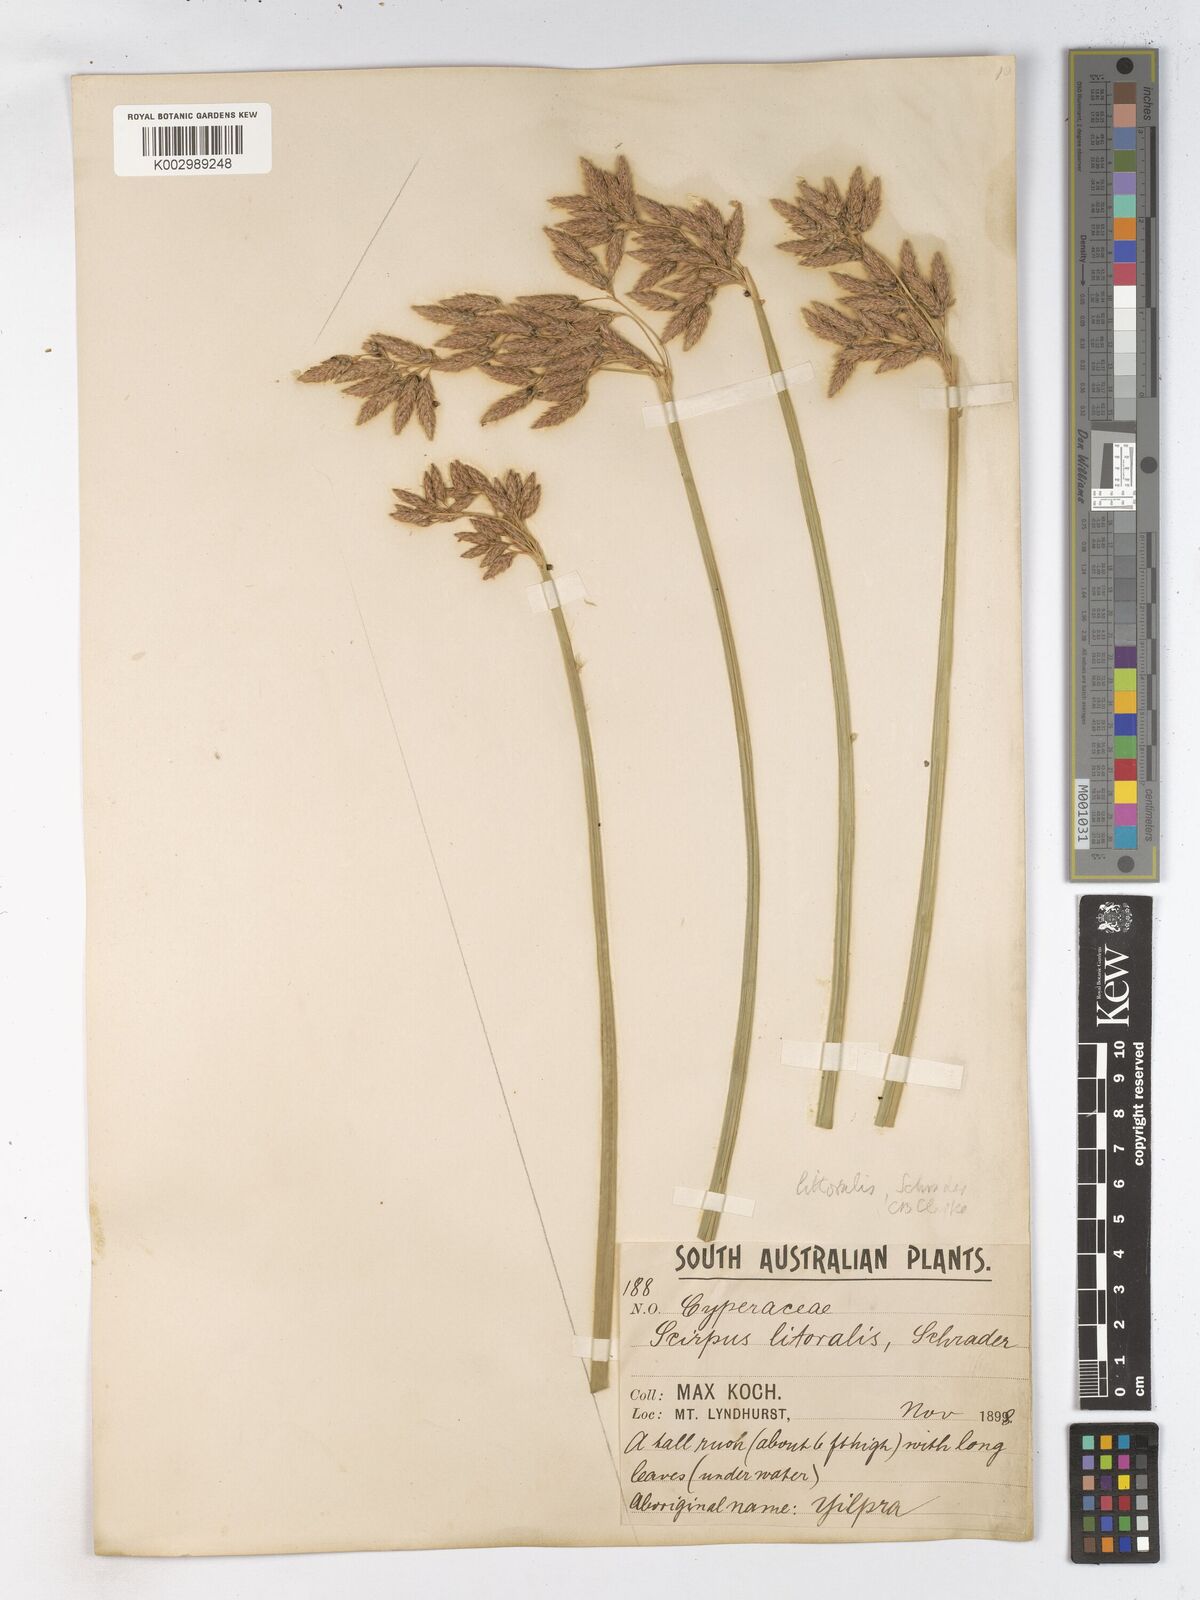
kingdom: Plantae
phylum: Tracheophyta
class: Liliopsida
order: Poales
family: Cyperaceae
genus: Schoenoplectus
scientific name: Schoenoplectus litoralis
